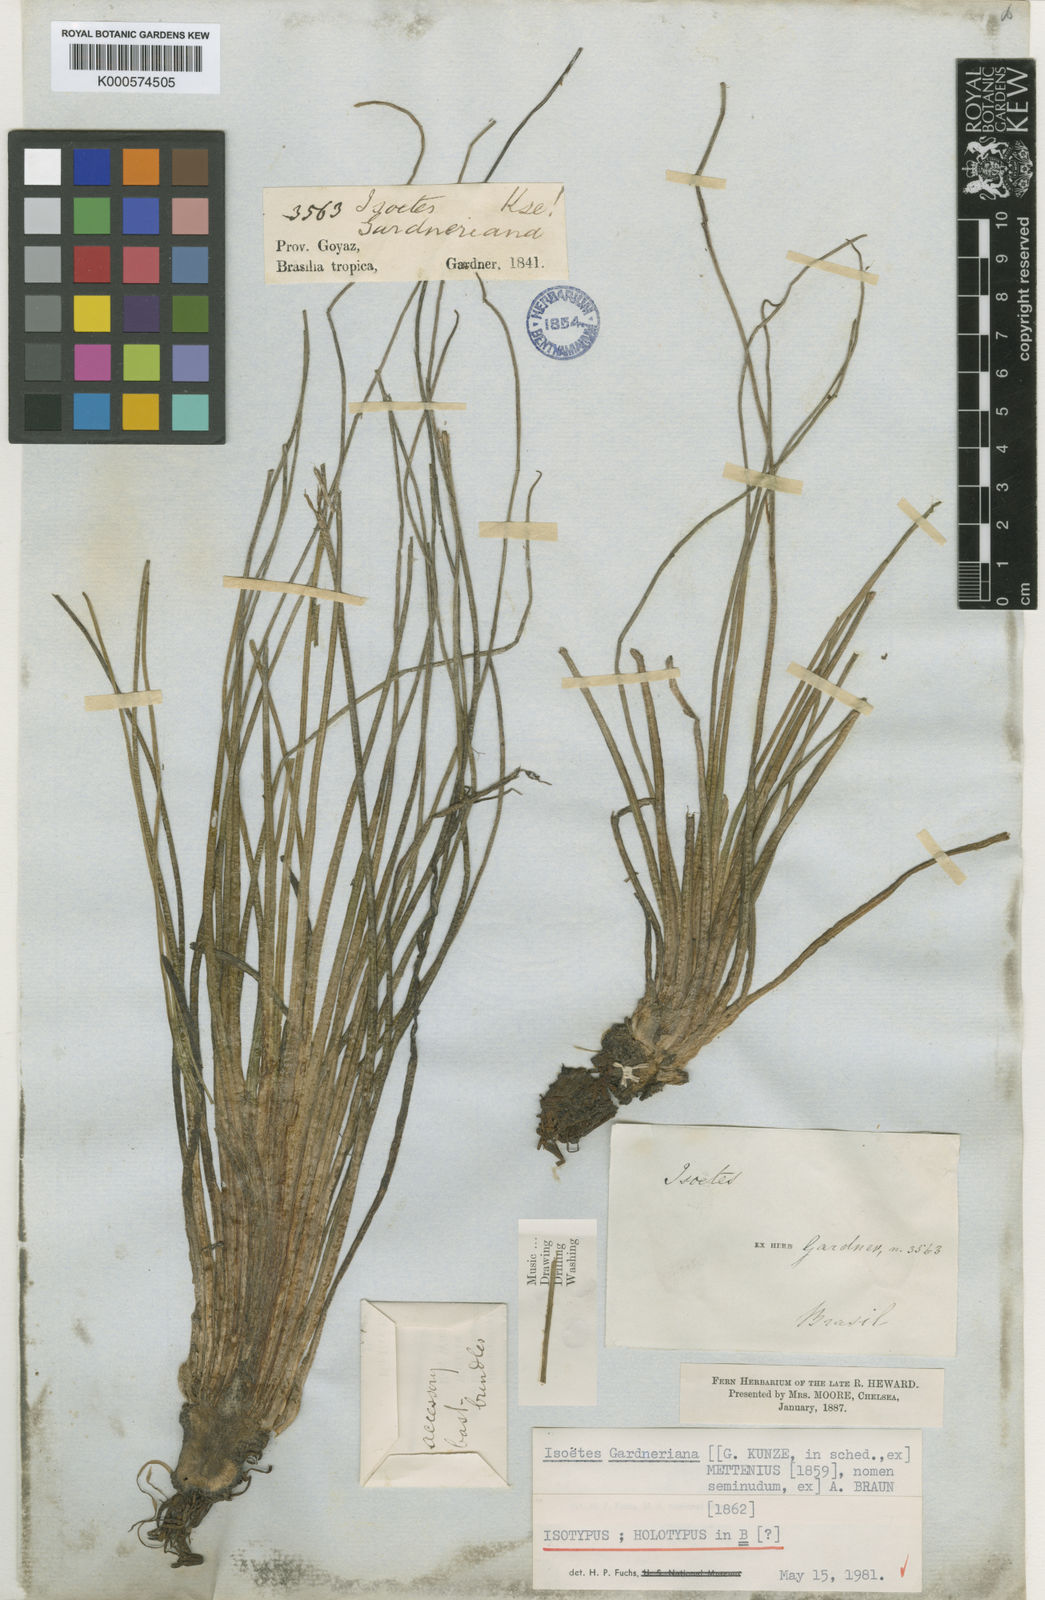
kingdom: Plantae
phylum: Tracheophyta
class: Lycopodiopsida
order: Isoetales
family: Isoetaceae
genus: Isoetes
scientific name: Isoetes
